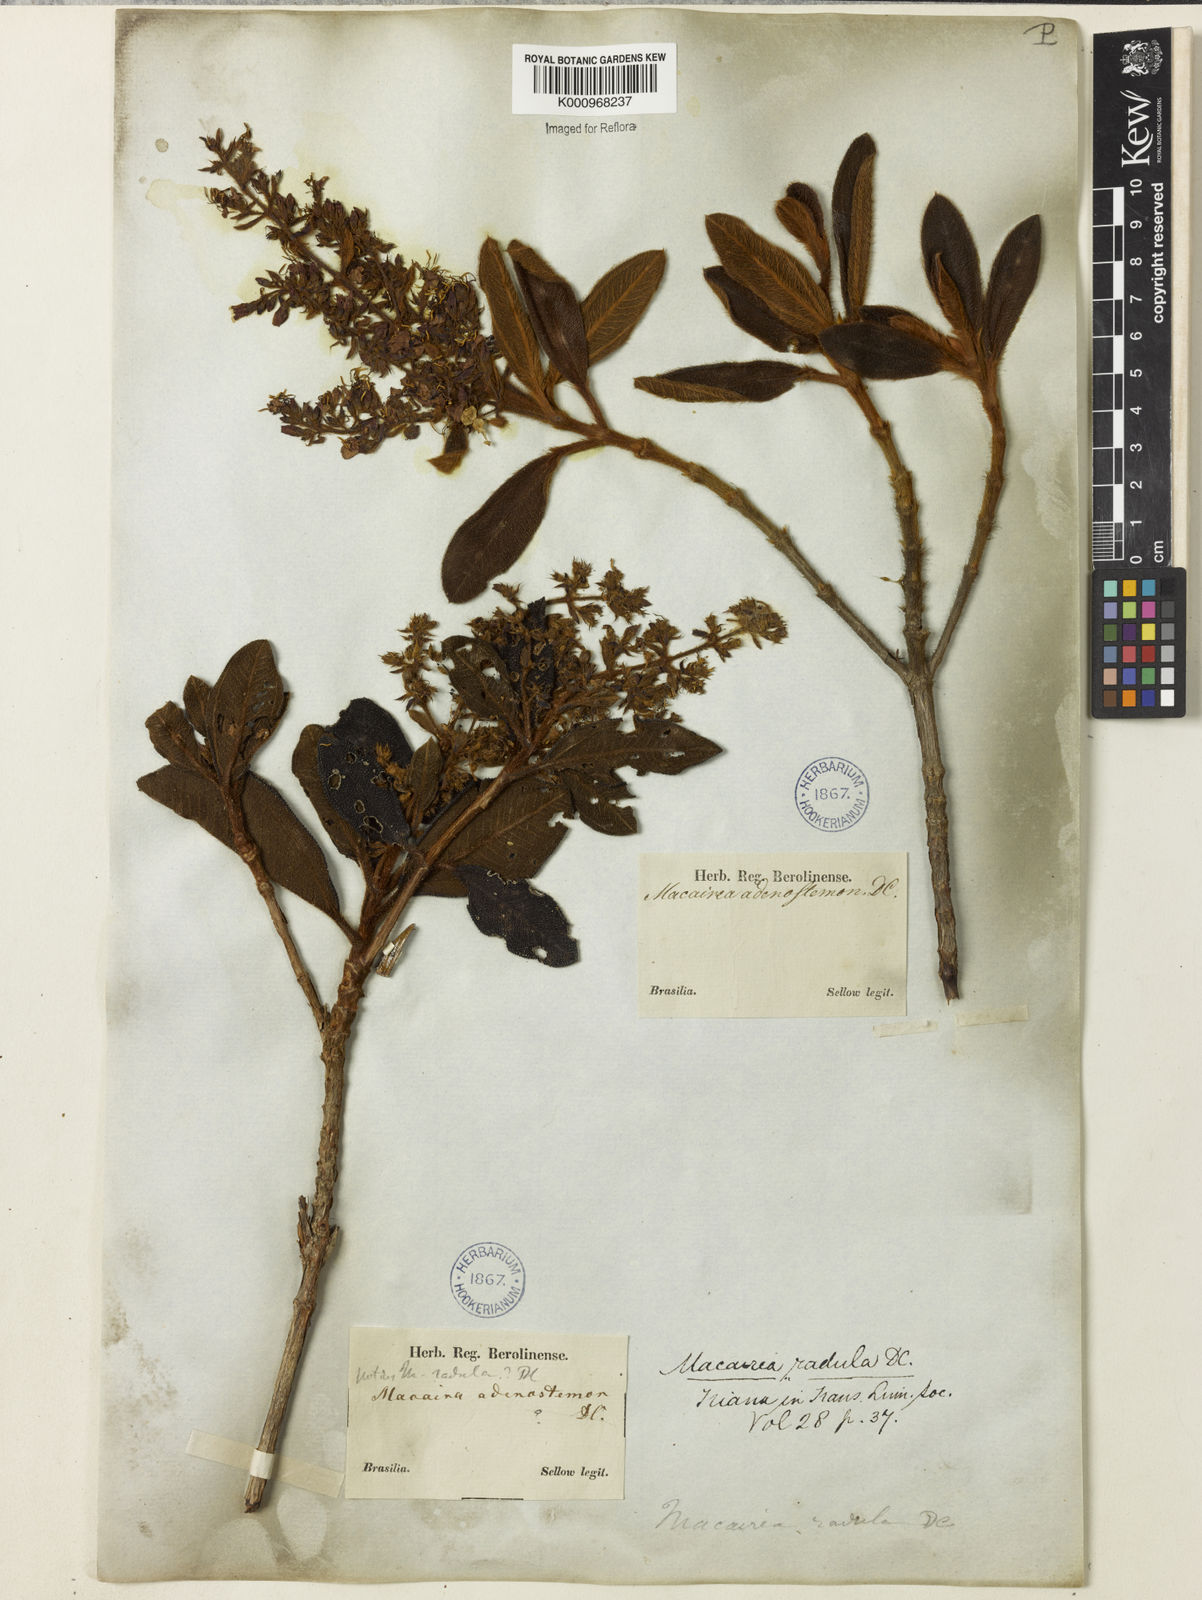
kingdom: Plantae
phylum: Tracheophyta
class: Magnoliopsida
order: Myrtales
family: Melastomataceae
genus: Macairea
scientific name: Macairea radula
